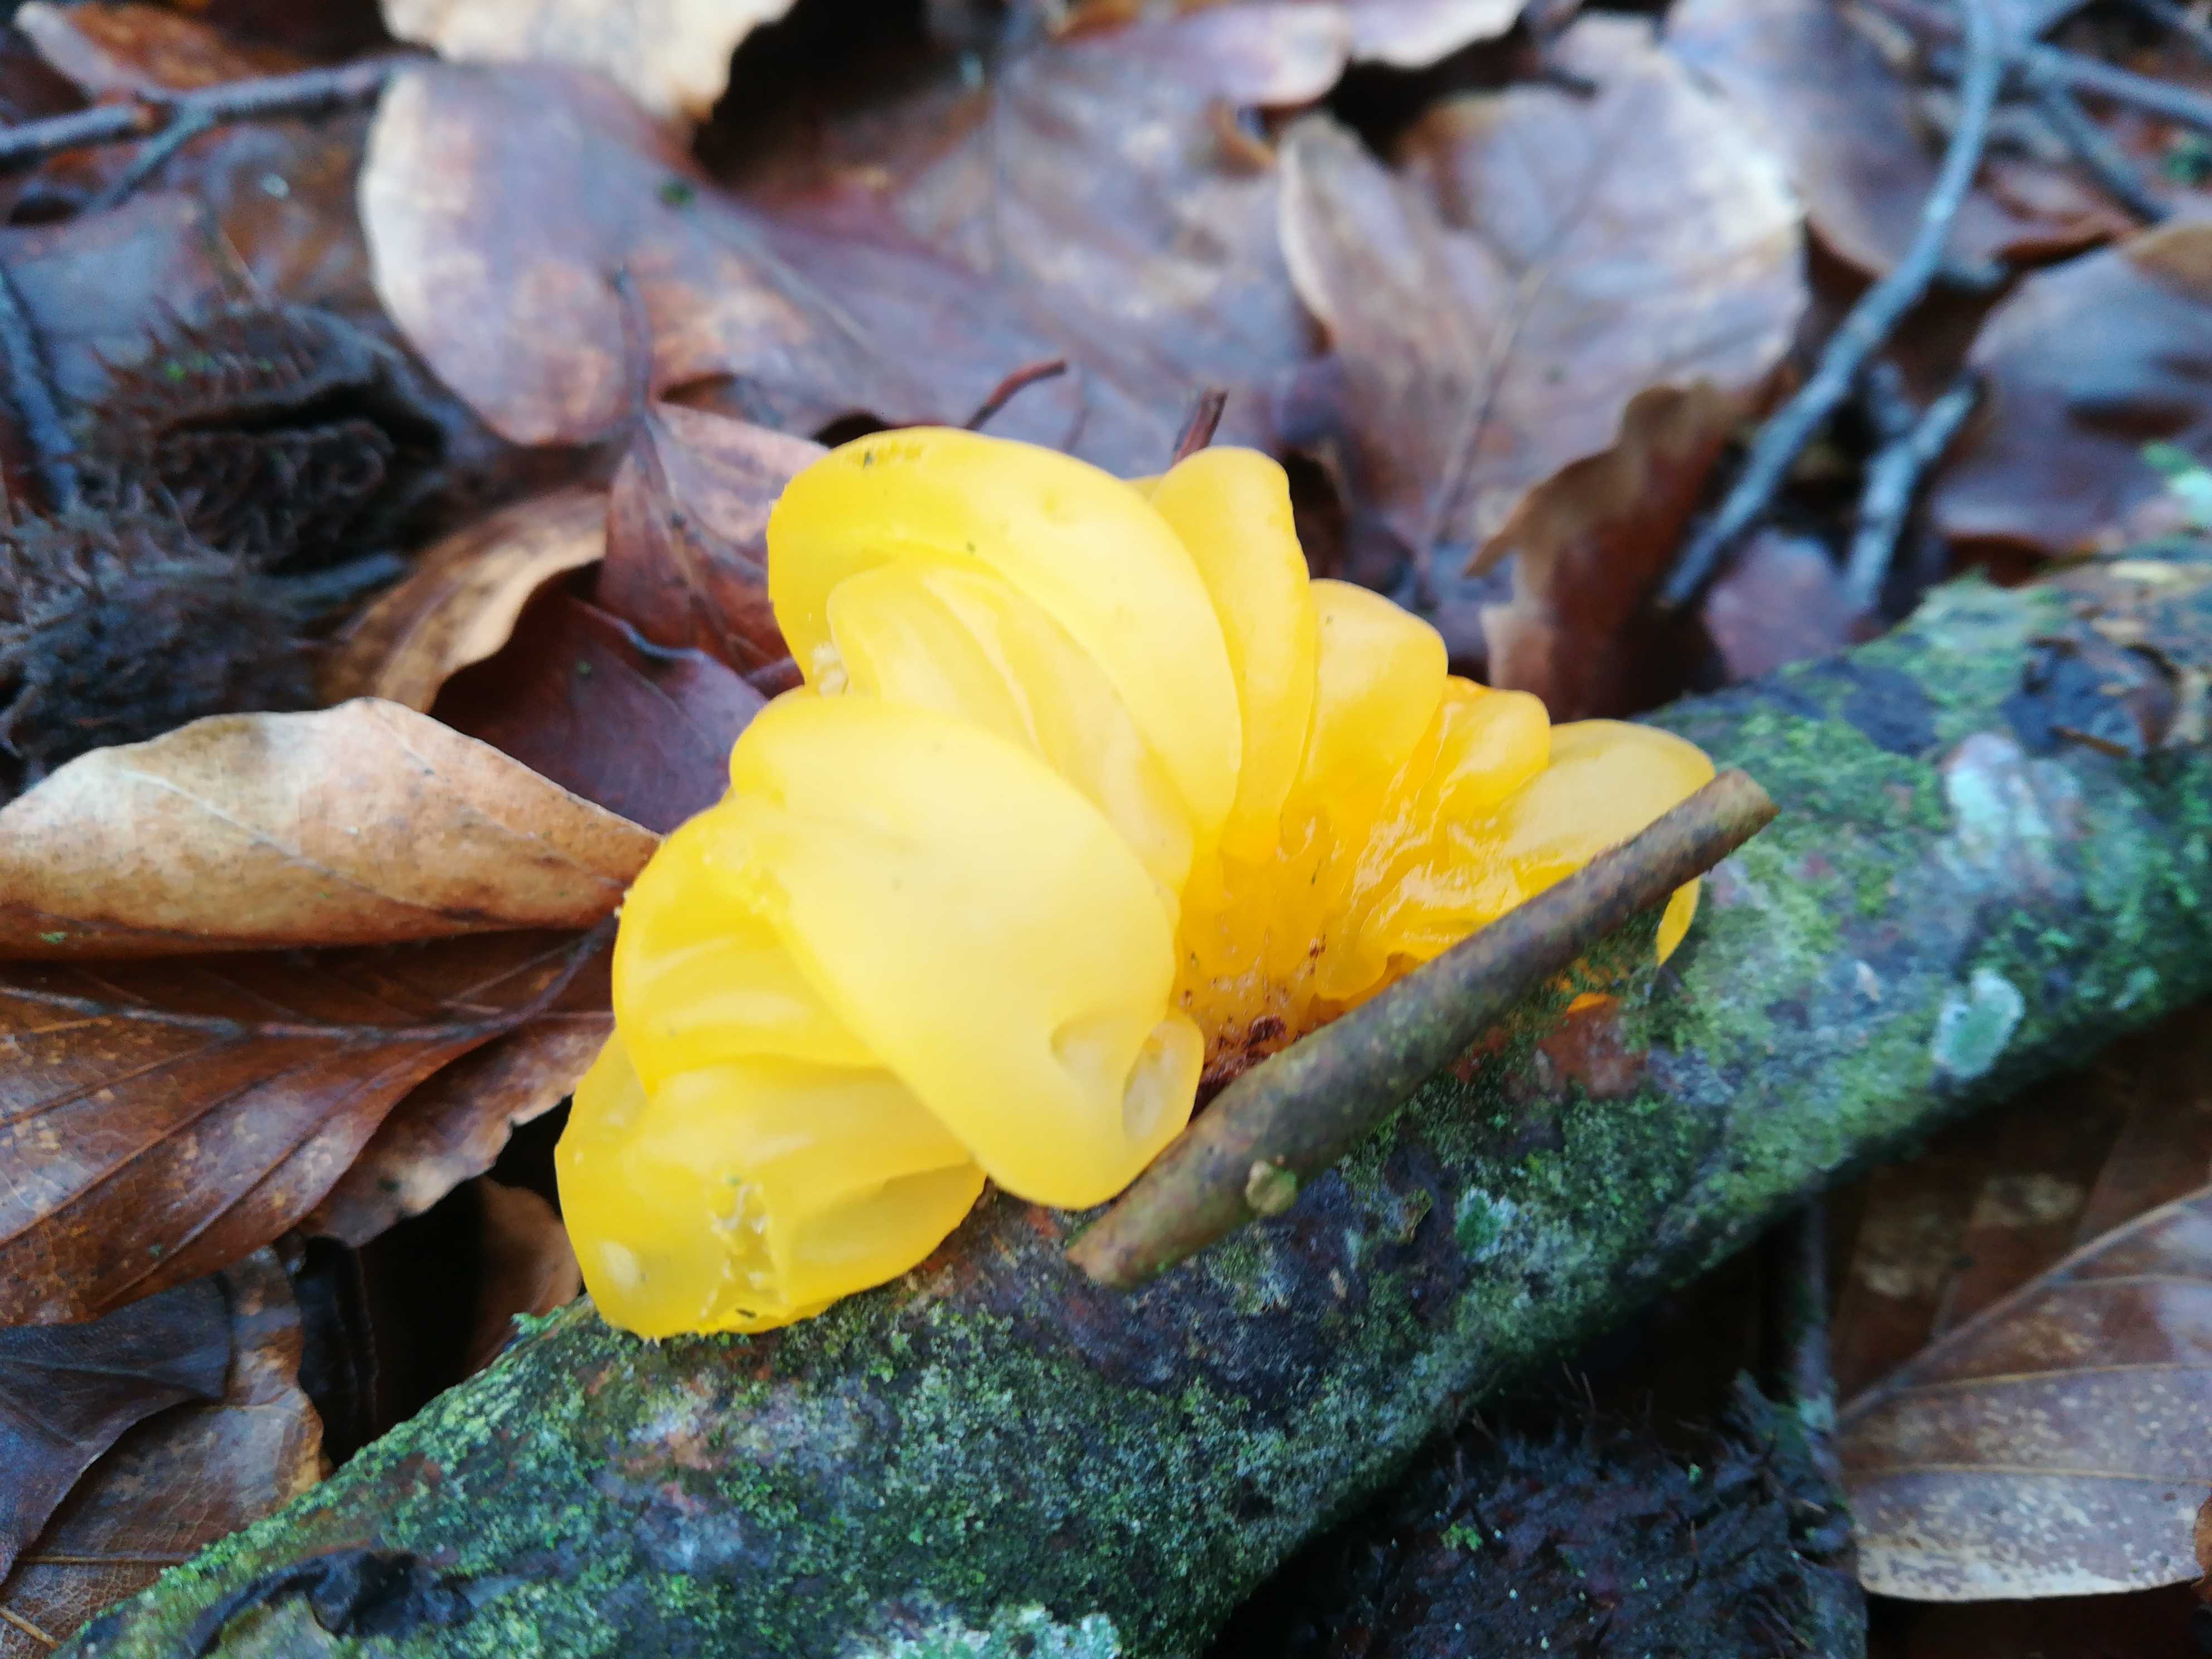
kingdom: Fungi
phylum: Basidiomycota
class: Tremellomycetes
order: Tremellales
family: Tremellaceae
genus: Tremella
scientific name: Tremella mesenterica
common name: gul bævresvamp
